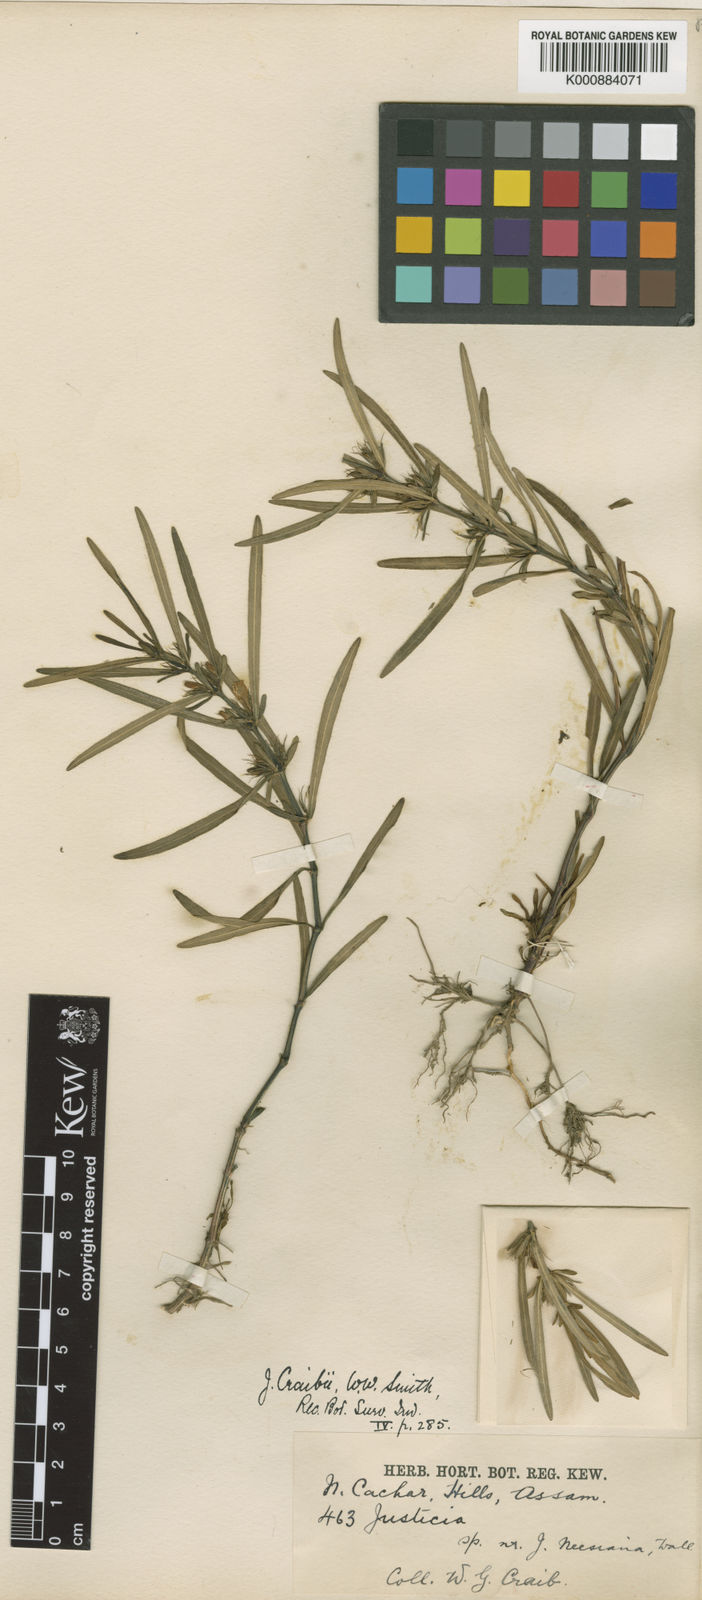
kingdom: Plantae
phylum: Tracheophyta
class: Magnoliopsida
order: Lamiales
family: Acanthaceae
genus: Justicia
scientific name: Justicia craibii
